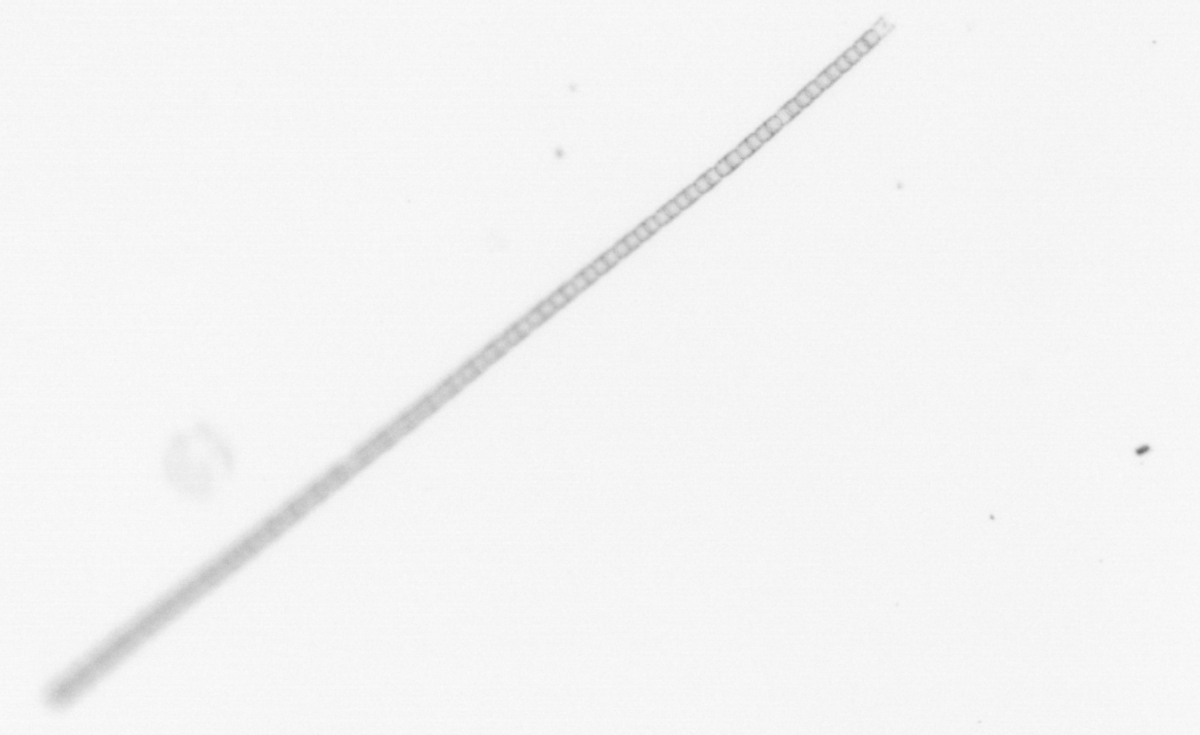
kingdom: Chromista
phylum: Ochrophyta
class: Bacillariophyceae
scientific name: Bacillariophyceae
